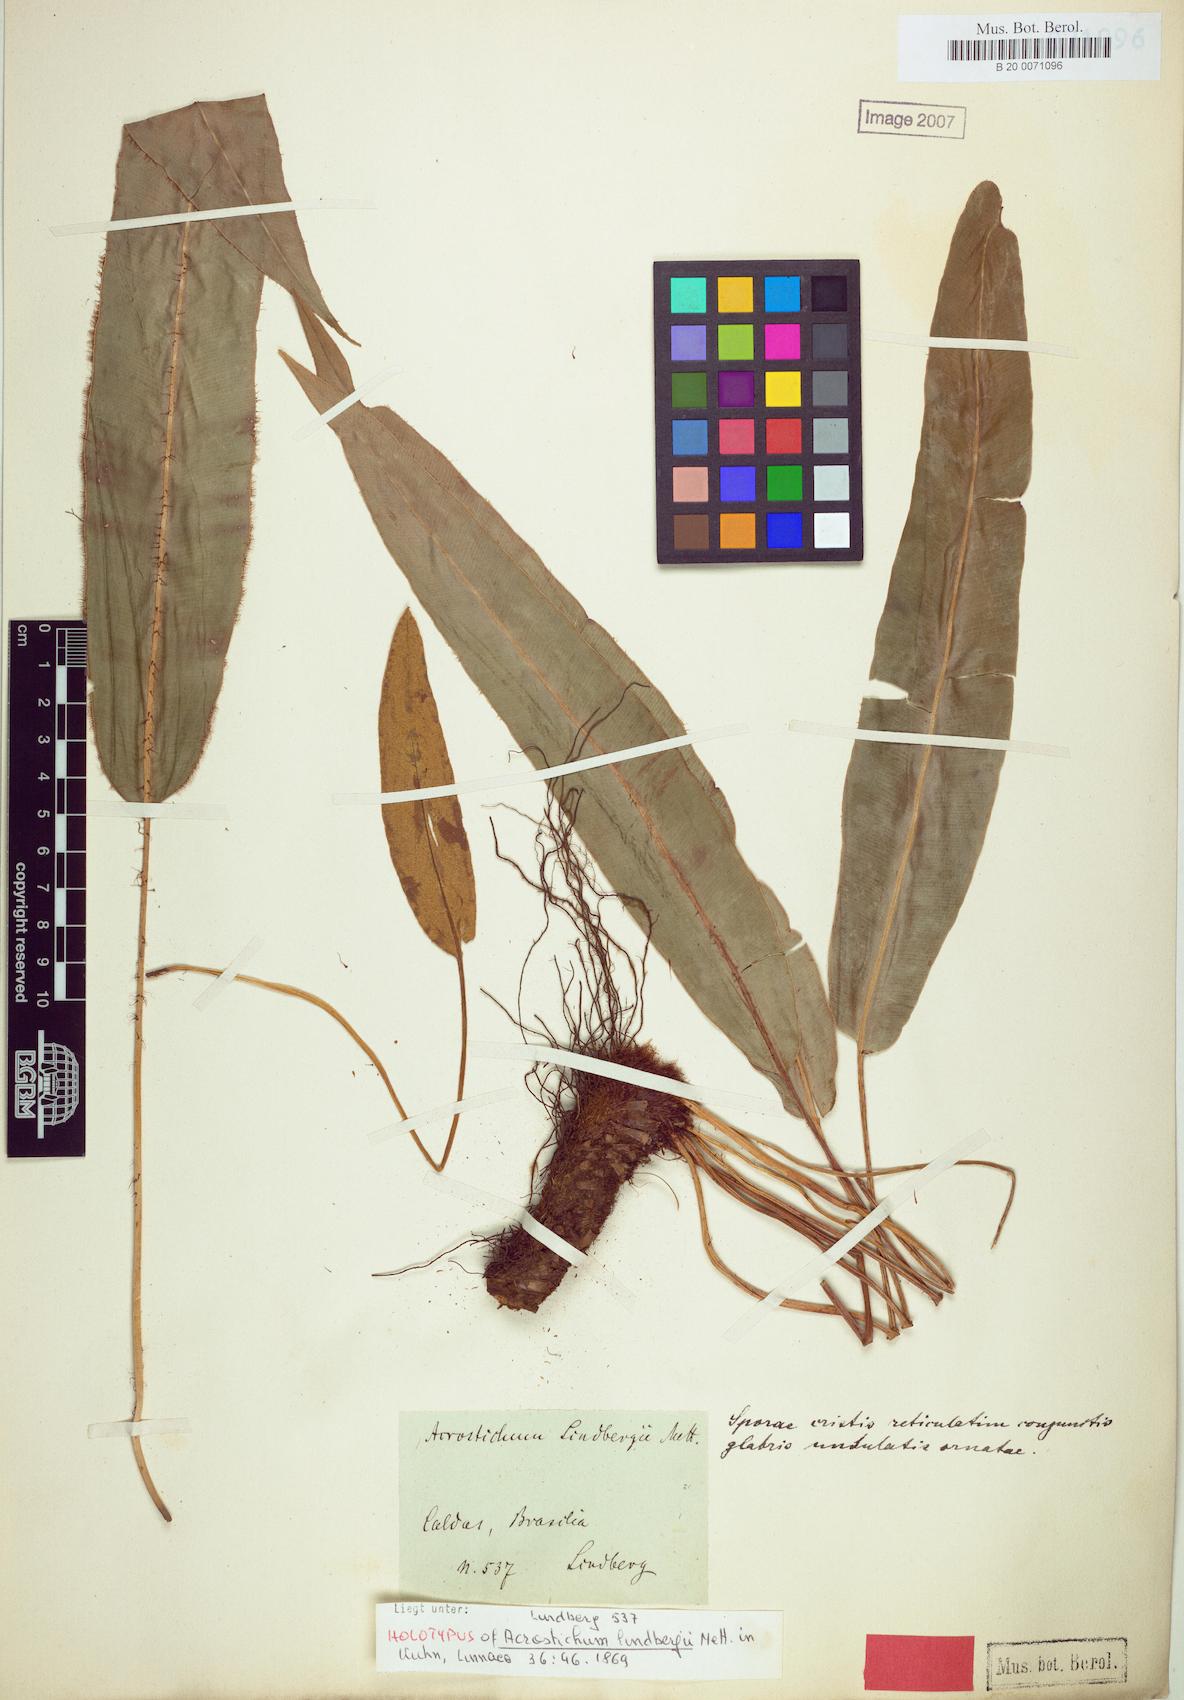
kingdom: Plantae
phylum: Tracheophyta
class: Polypodiopsida
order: Polypodiales
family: Dryopteridaceae
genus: Elaphoglossum
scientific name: Elaphoglossum hybridum
